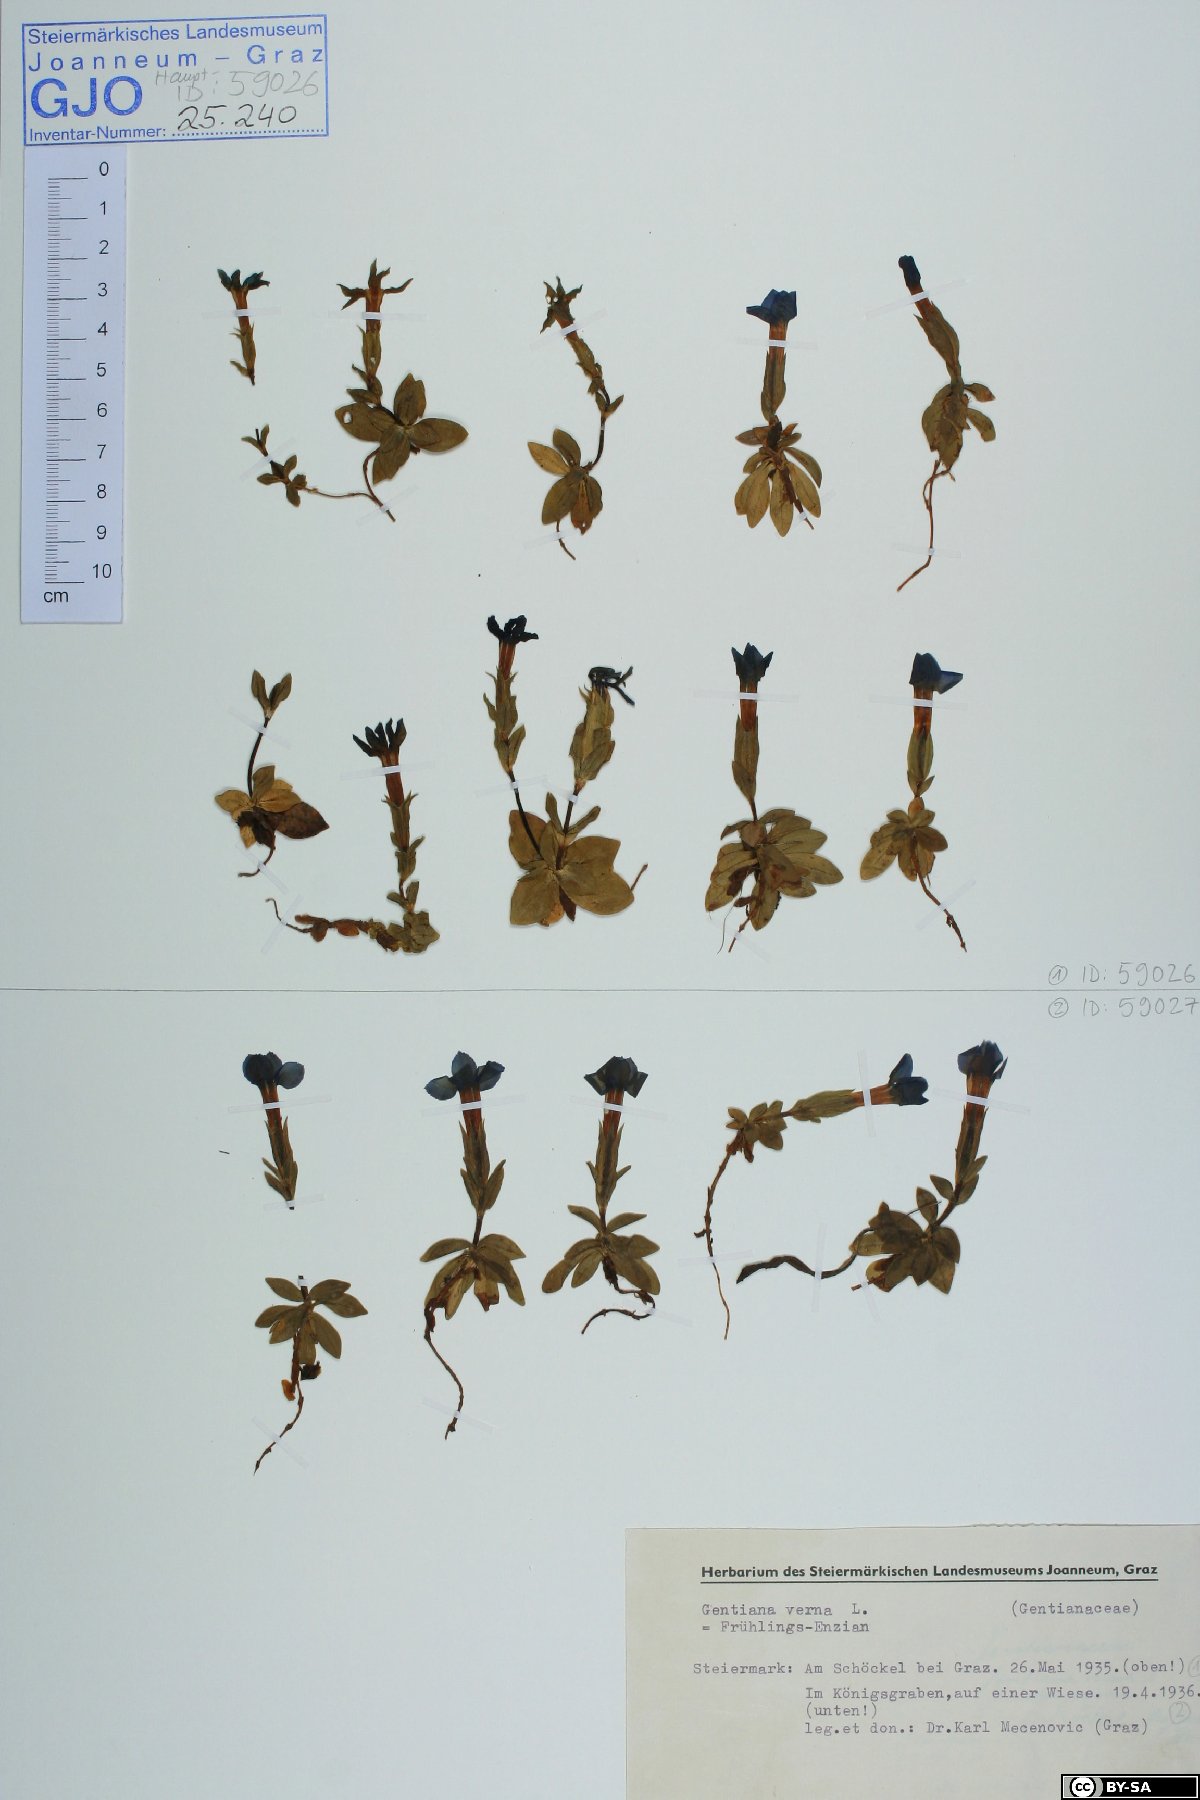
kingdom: Plantae
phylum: Tracheophyta
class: Magnoliopsida
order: Gentianales
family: Gentianaceae
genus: Gentiana
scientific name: Gentiana verna
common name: Spring gentian
